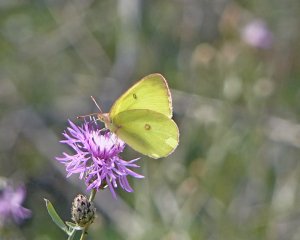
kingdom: Animalia
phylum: Arthropoda
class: Insecta
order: Lepidoptera
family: Pieridae
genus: Colias
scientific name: Colias interior
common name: Pink-edged Sulphur
